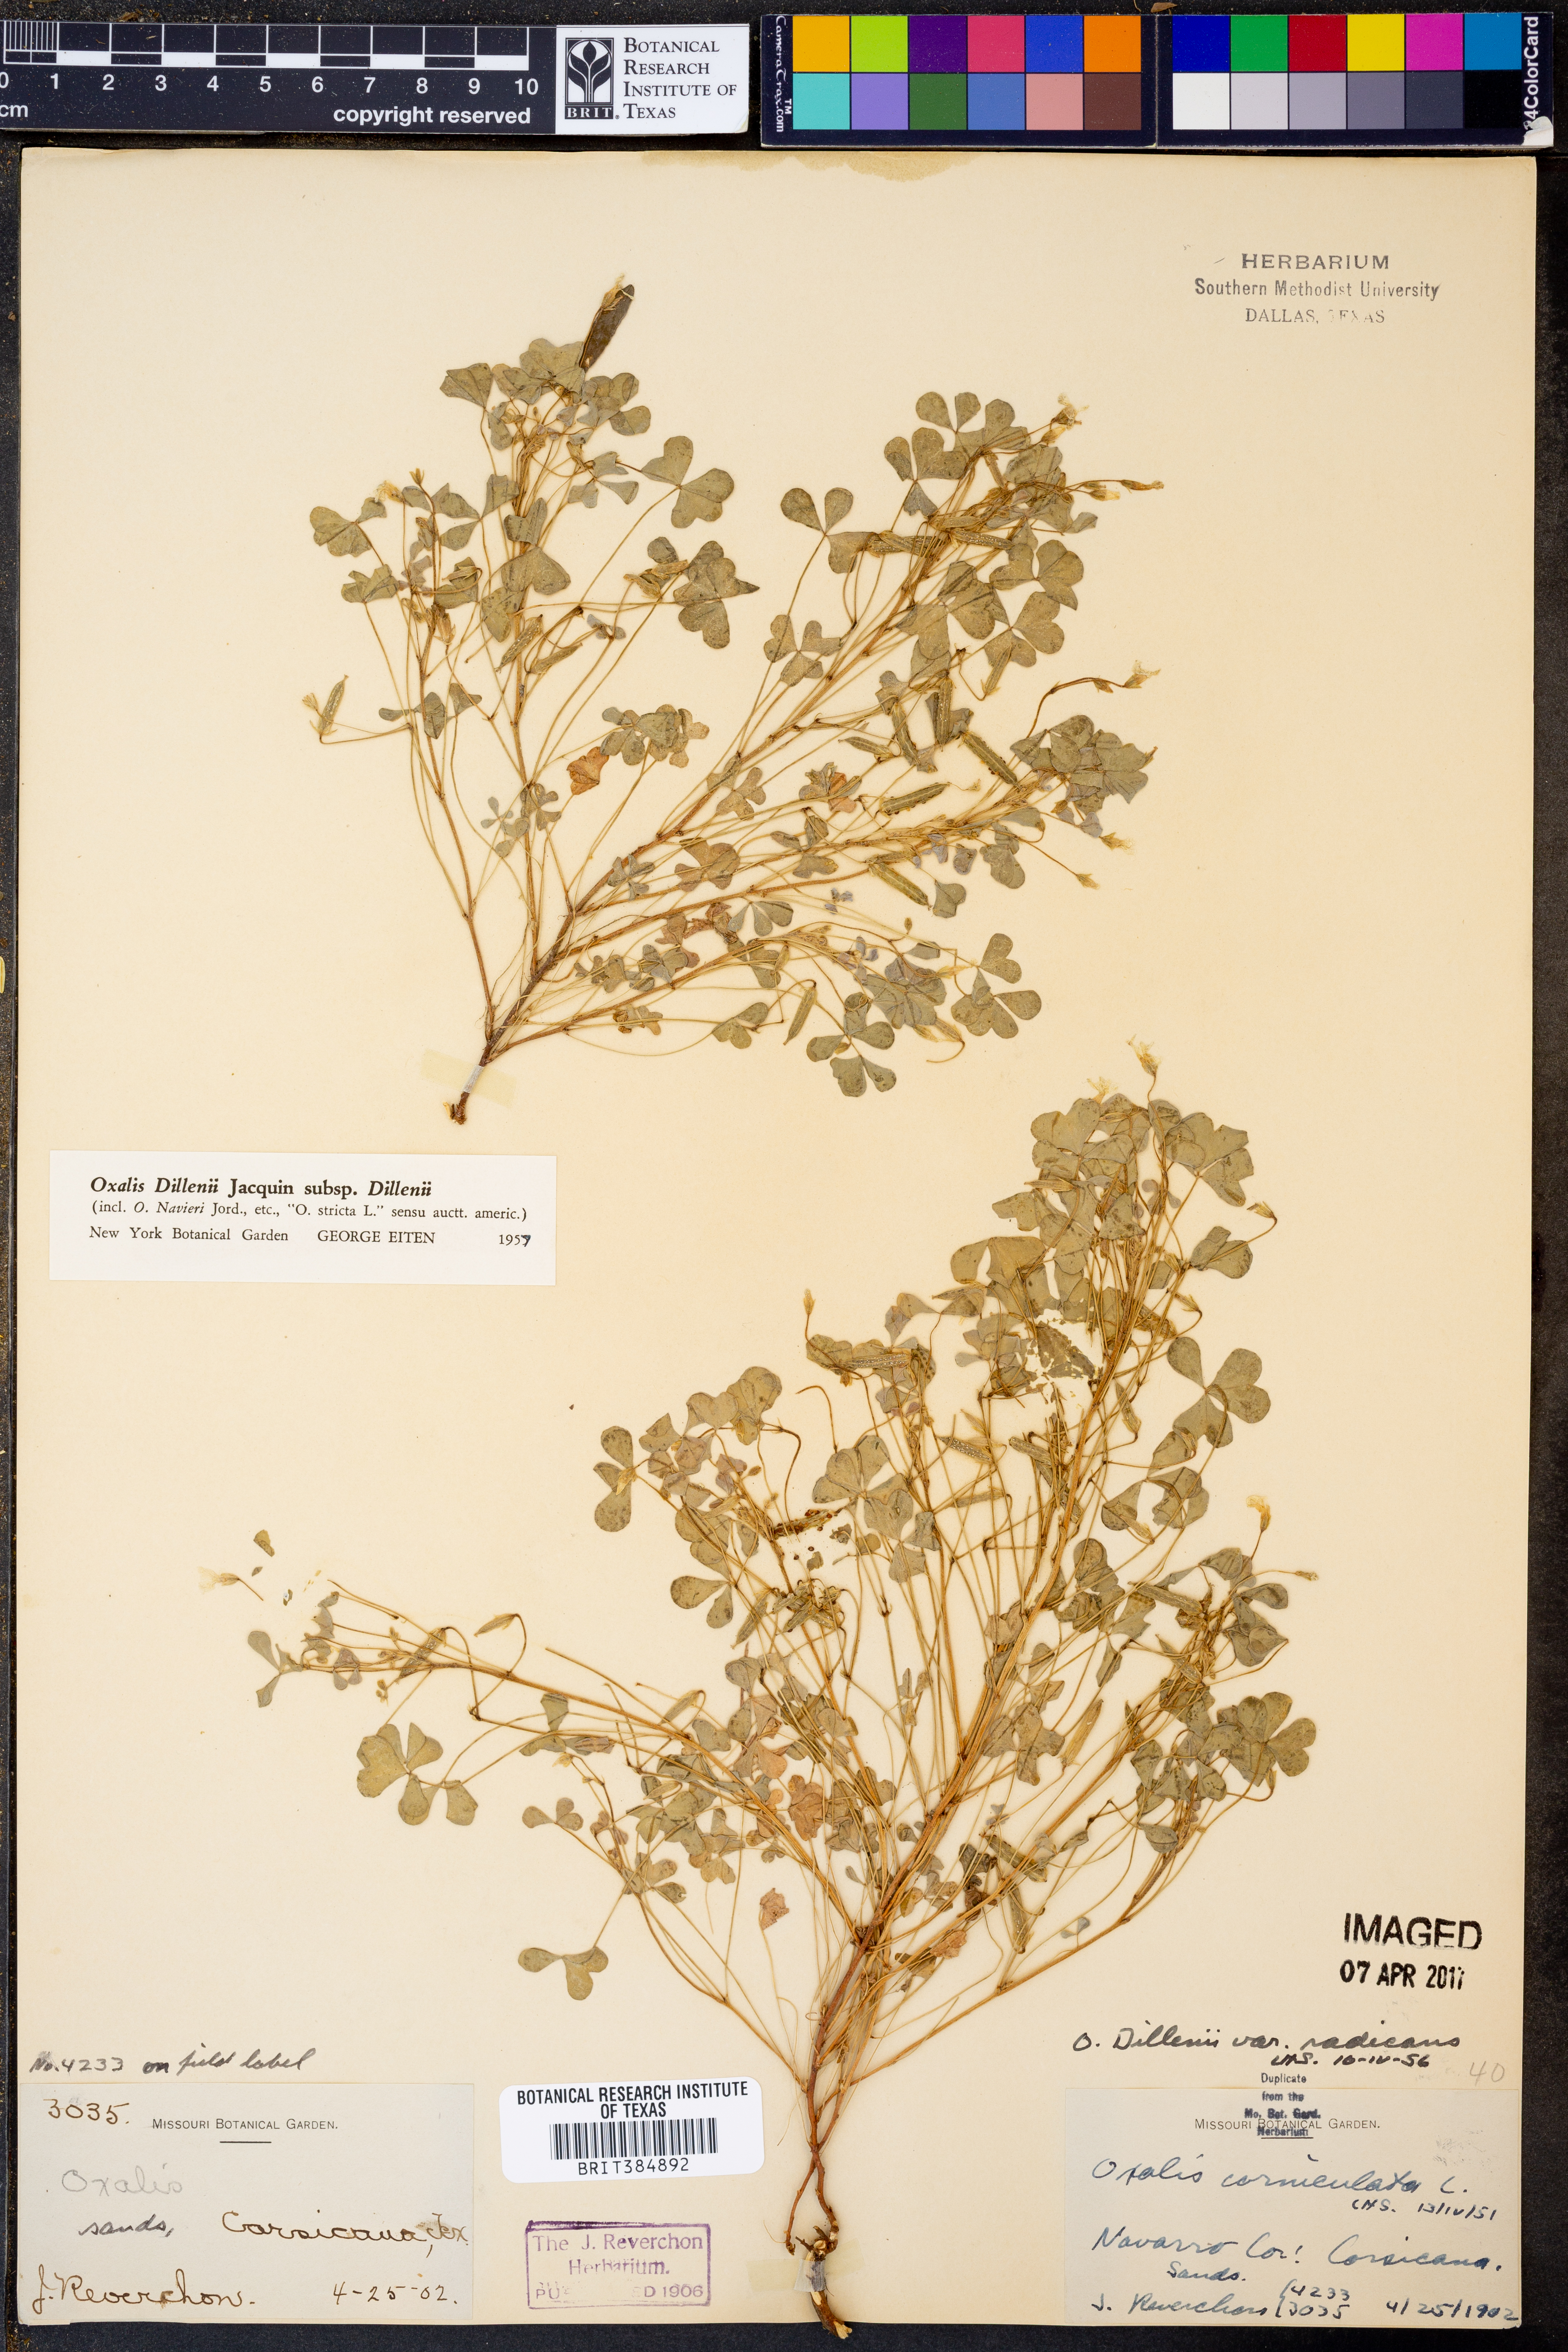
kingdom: Plantae
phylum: Tracheophyta
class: Magnoliopsida
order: Oxalidales
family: Oxalidaceae
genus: Oxalis
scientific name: Oxalis dillenii
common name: Sussex yellow-sorrel
